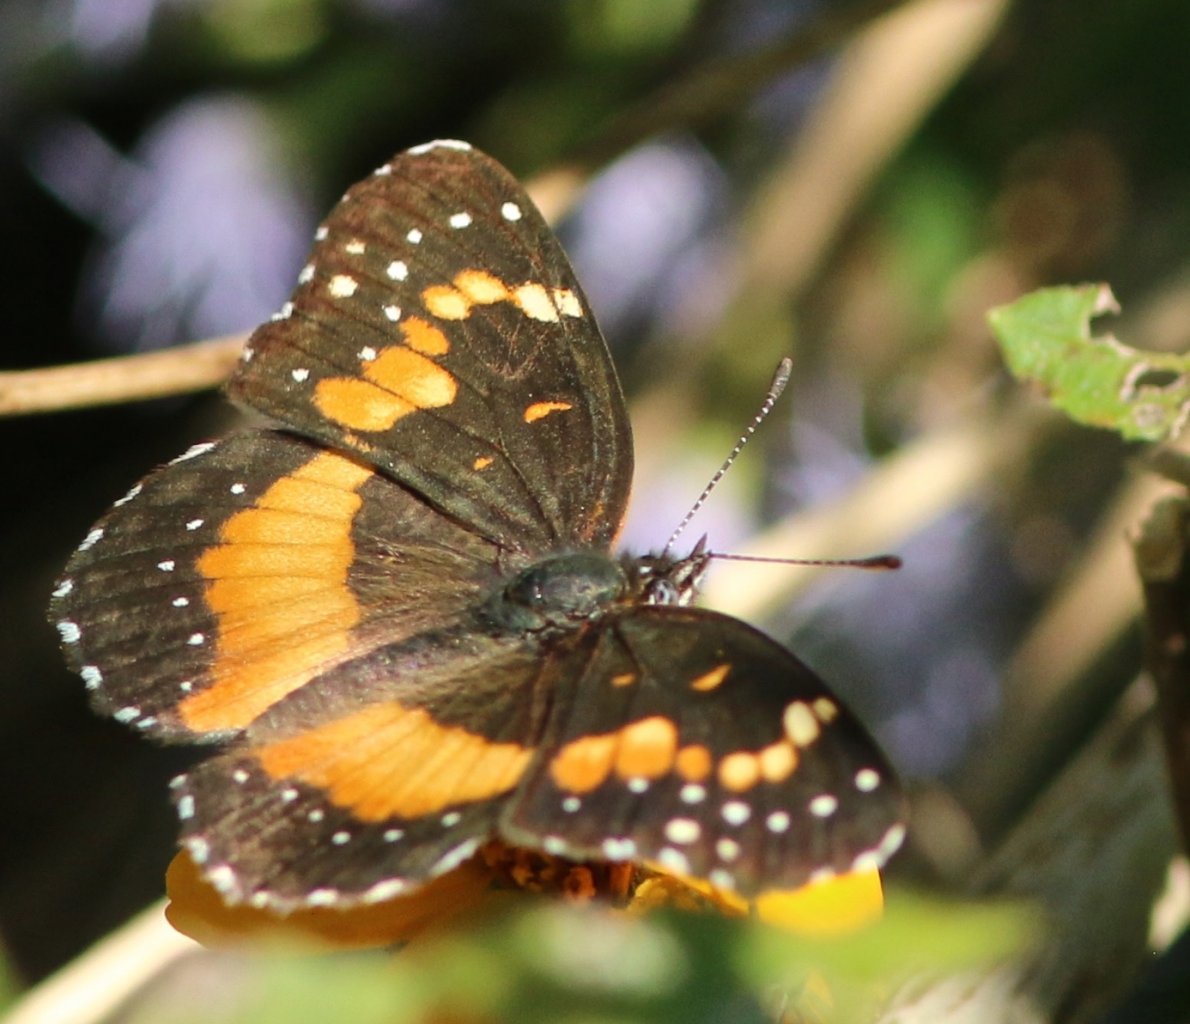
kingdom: Animalia
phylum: Arthropoda
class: Insecta
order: Lepidoptera
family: Nymphalidae
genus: Chlosyne
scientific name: Chlosyne lacinia
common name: Bordered Patch
